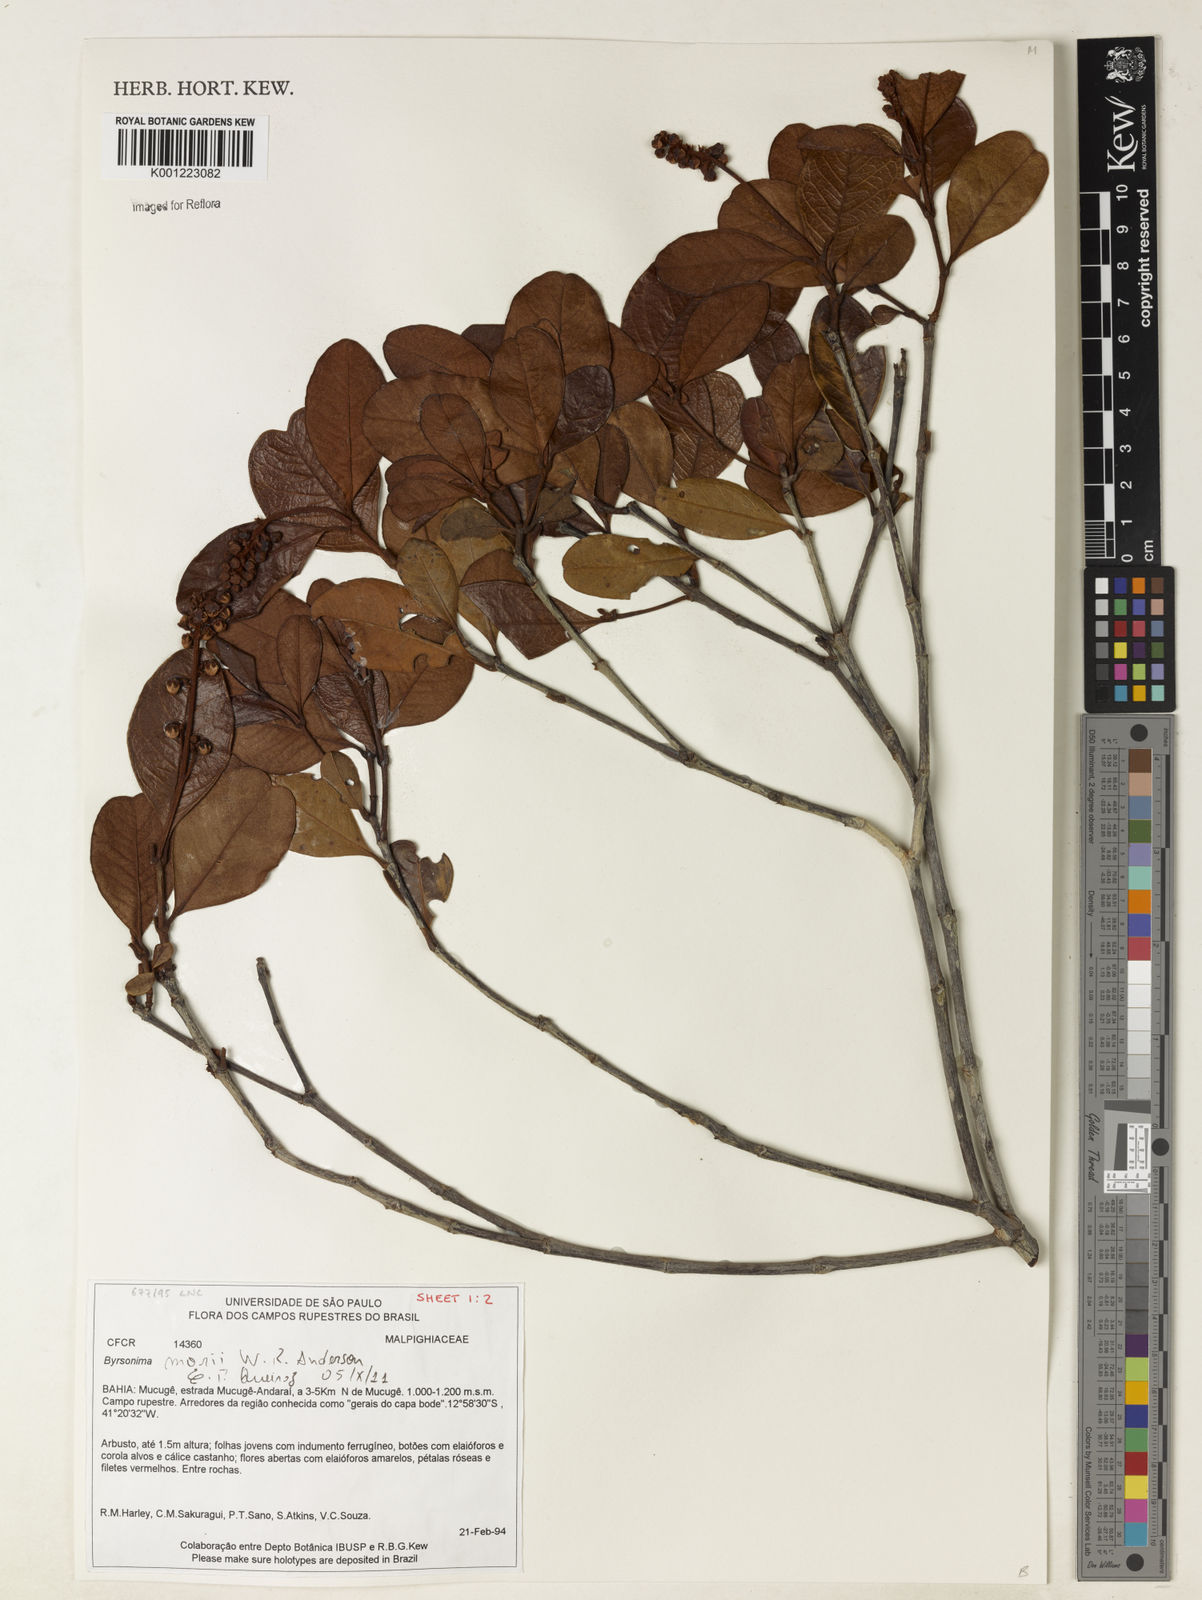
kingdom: Plantae
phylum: Tracheophyta
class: Magnoliopsida
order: Malpighiales
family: Malpighiaceae
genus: Byrsonima
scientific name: Byrsonima morii
